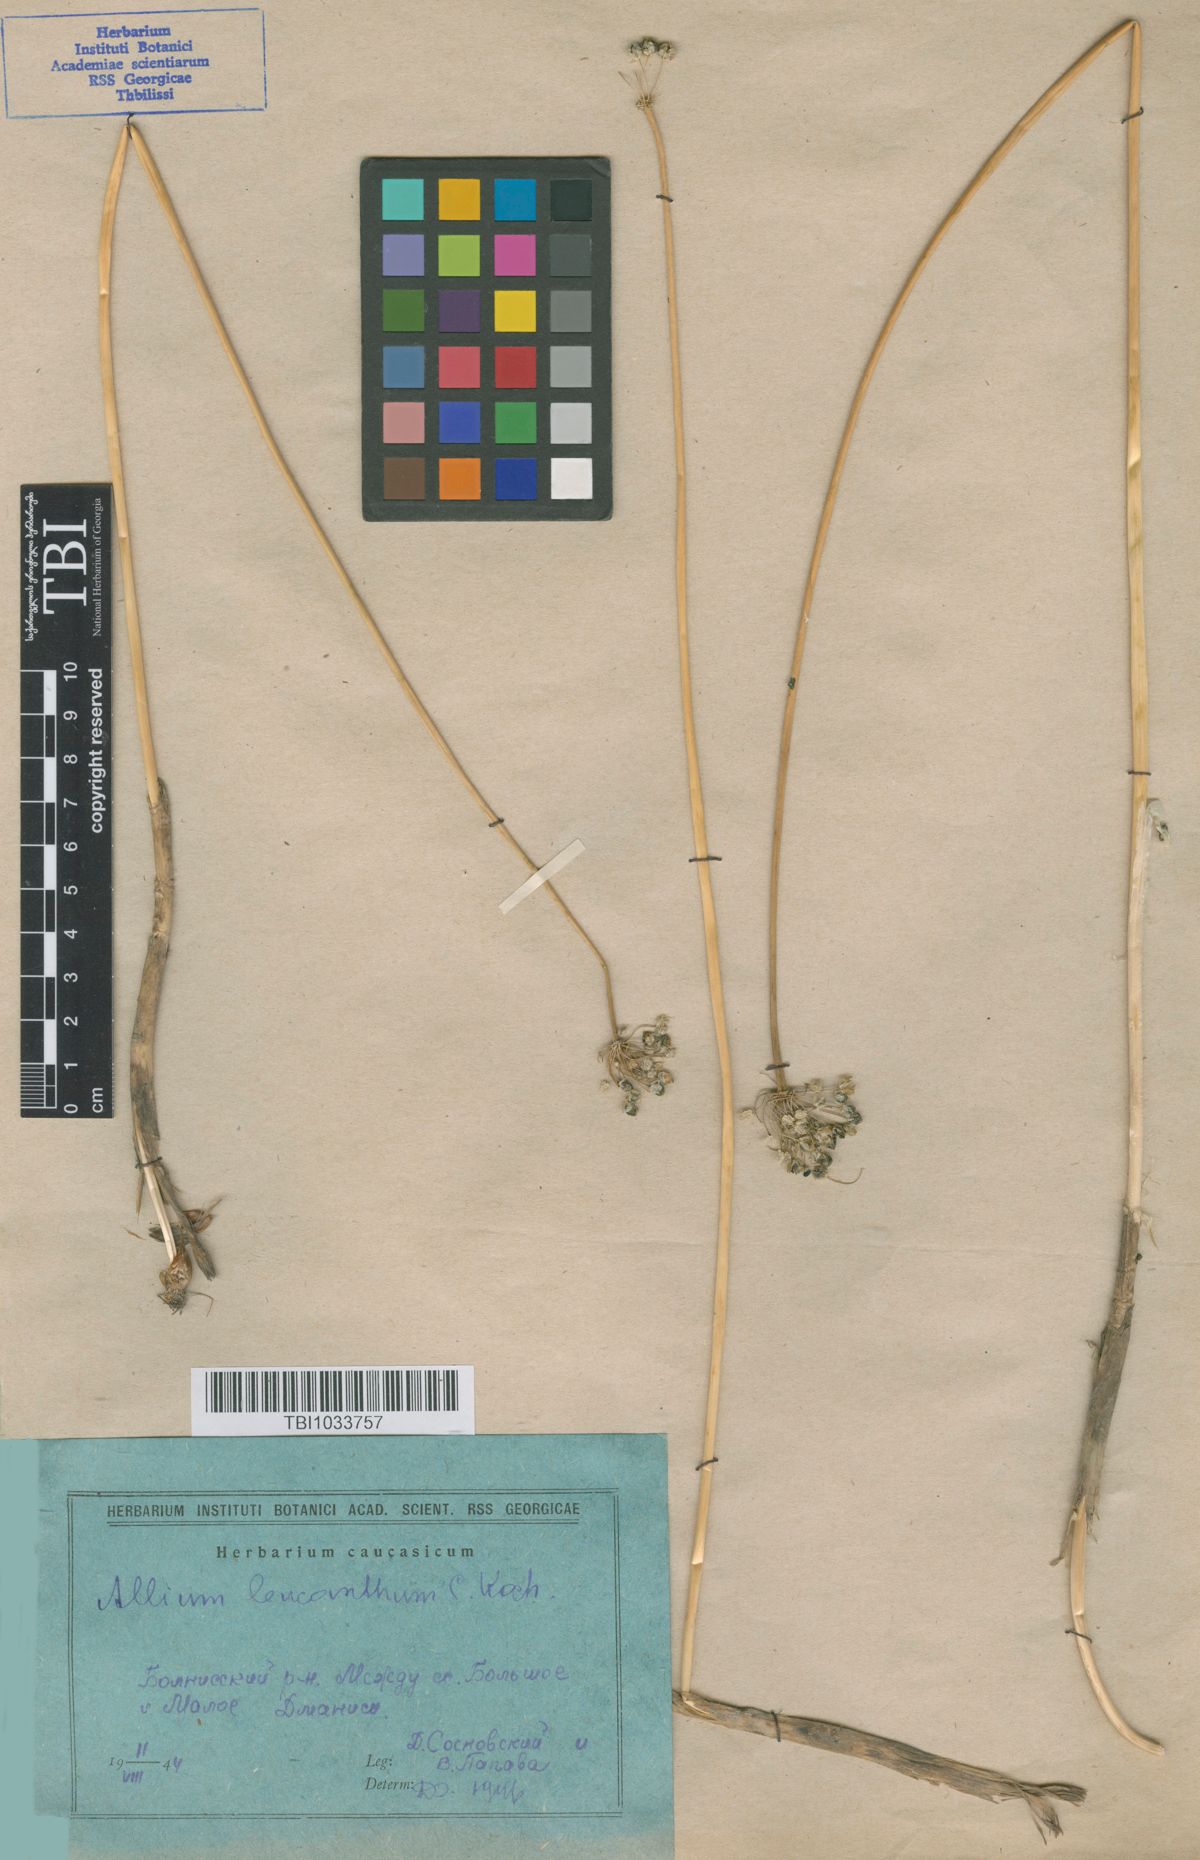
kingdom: Plantae
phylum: Tracheophyta
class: Liliopsida
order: Asparagales
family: Amaryllidaceae
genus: Allium
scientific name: Allium ampeloprasum
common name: Wild leek
